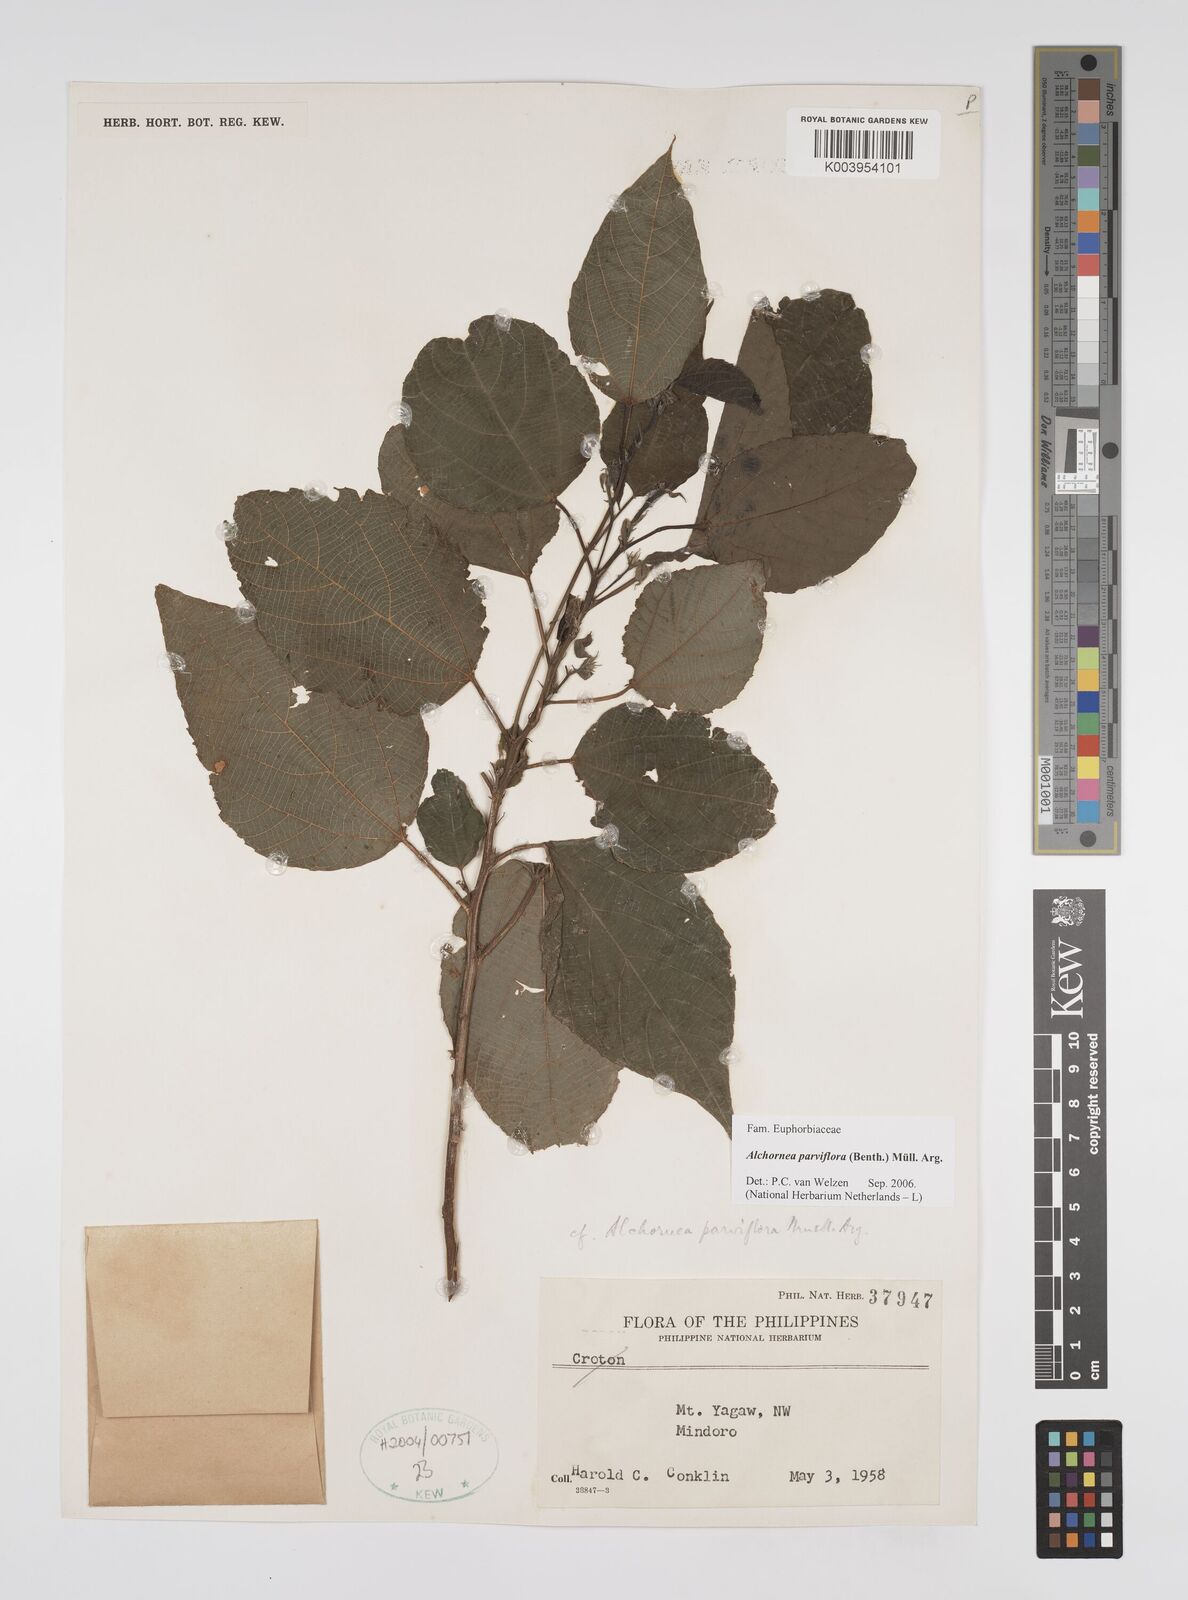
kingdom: Plantae
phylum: Tracheophyta
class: Magnoliopsida
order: Malpighiales
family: Euphorbiaceae
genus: Alchornea
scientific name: Alchornea parviflora
